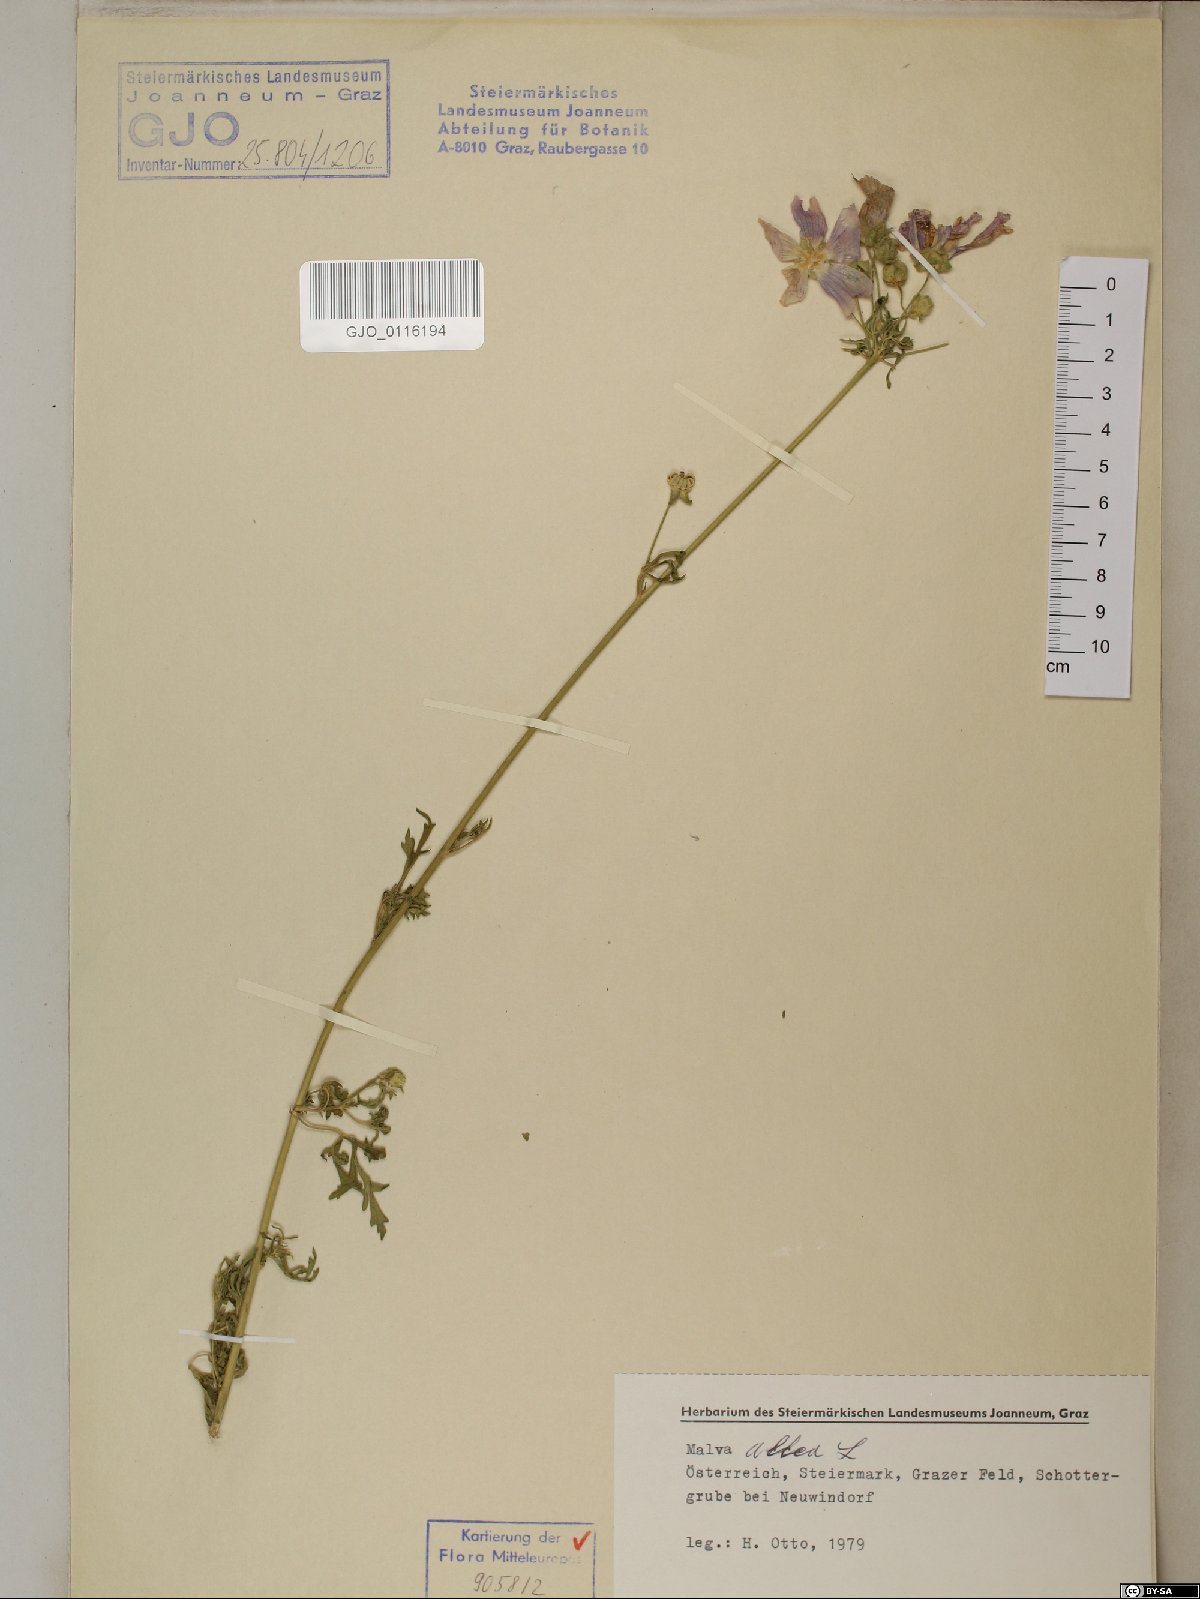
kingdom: Plantae
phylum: Tracheophyta
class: Magnoliopsida
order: Malvales
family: Malvaceae
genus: Malva
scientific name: Malva alcea
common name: Greater musk-mallow
